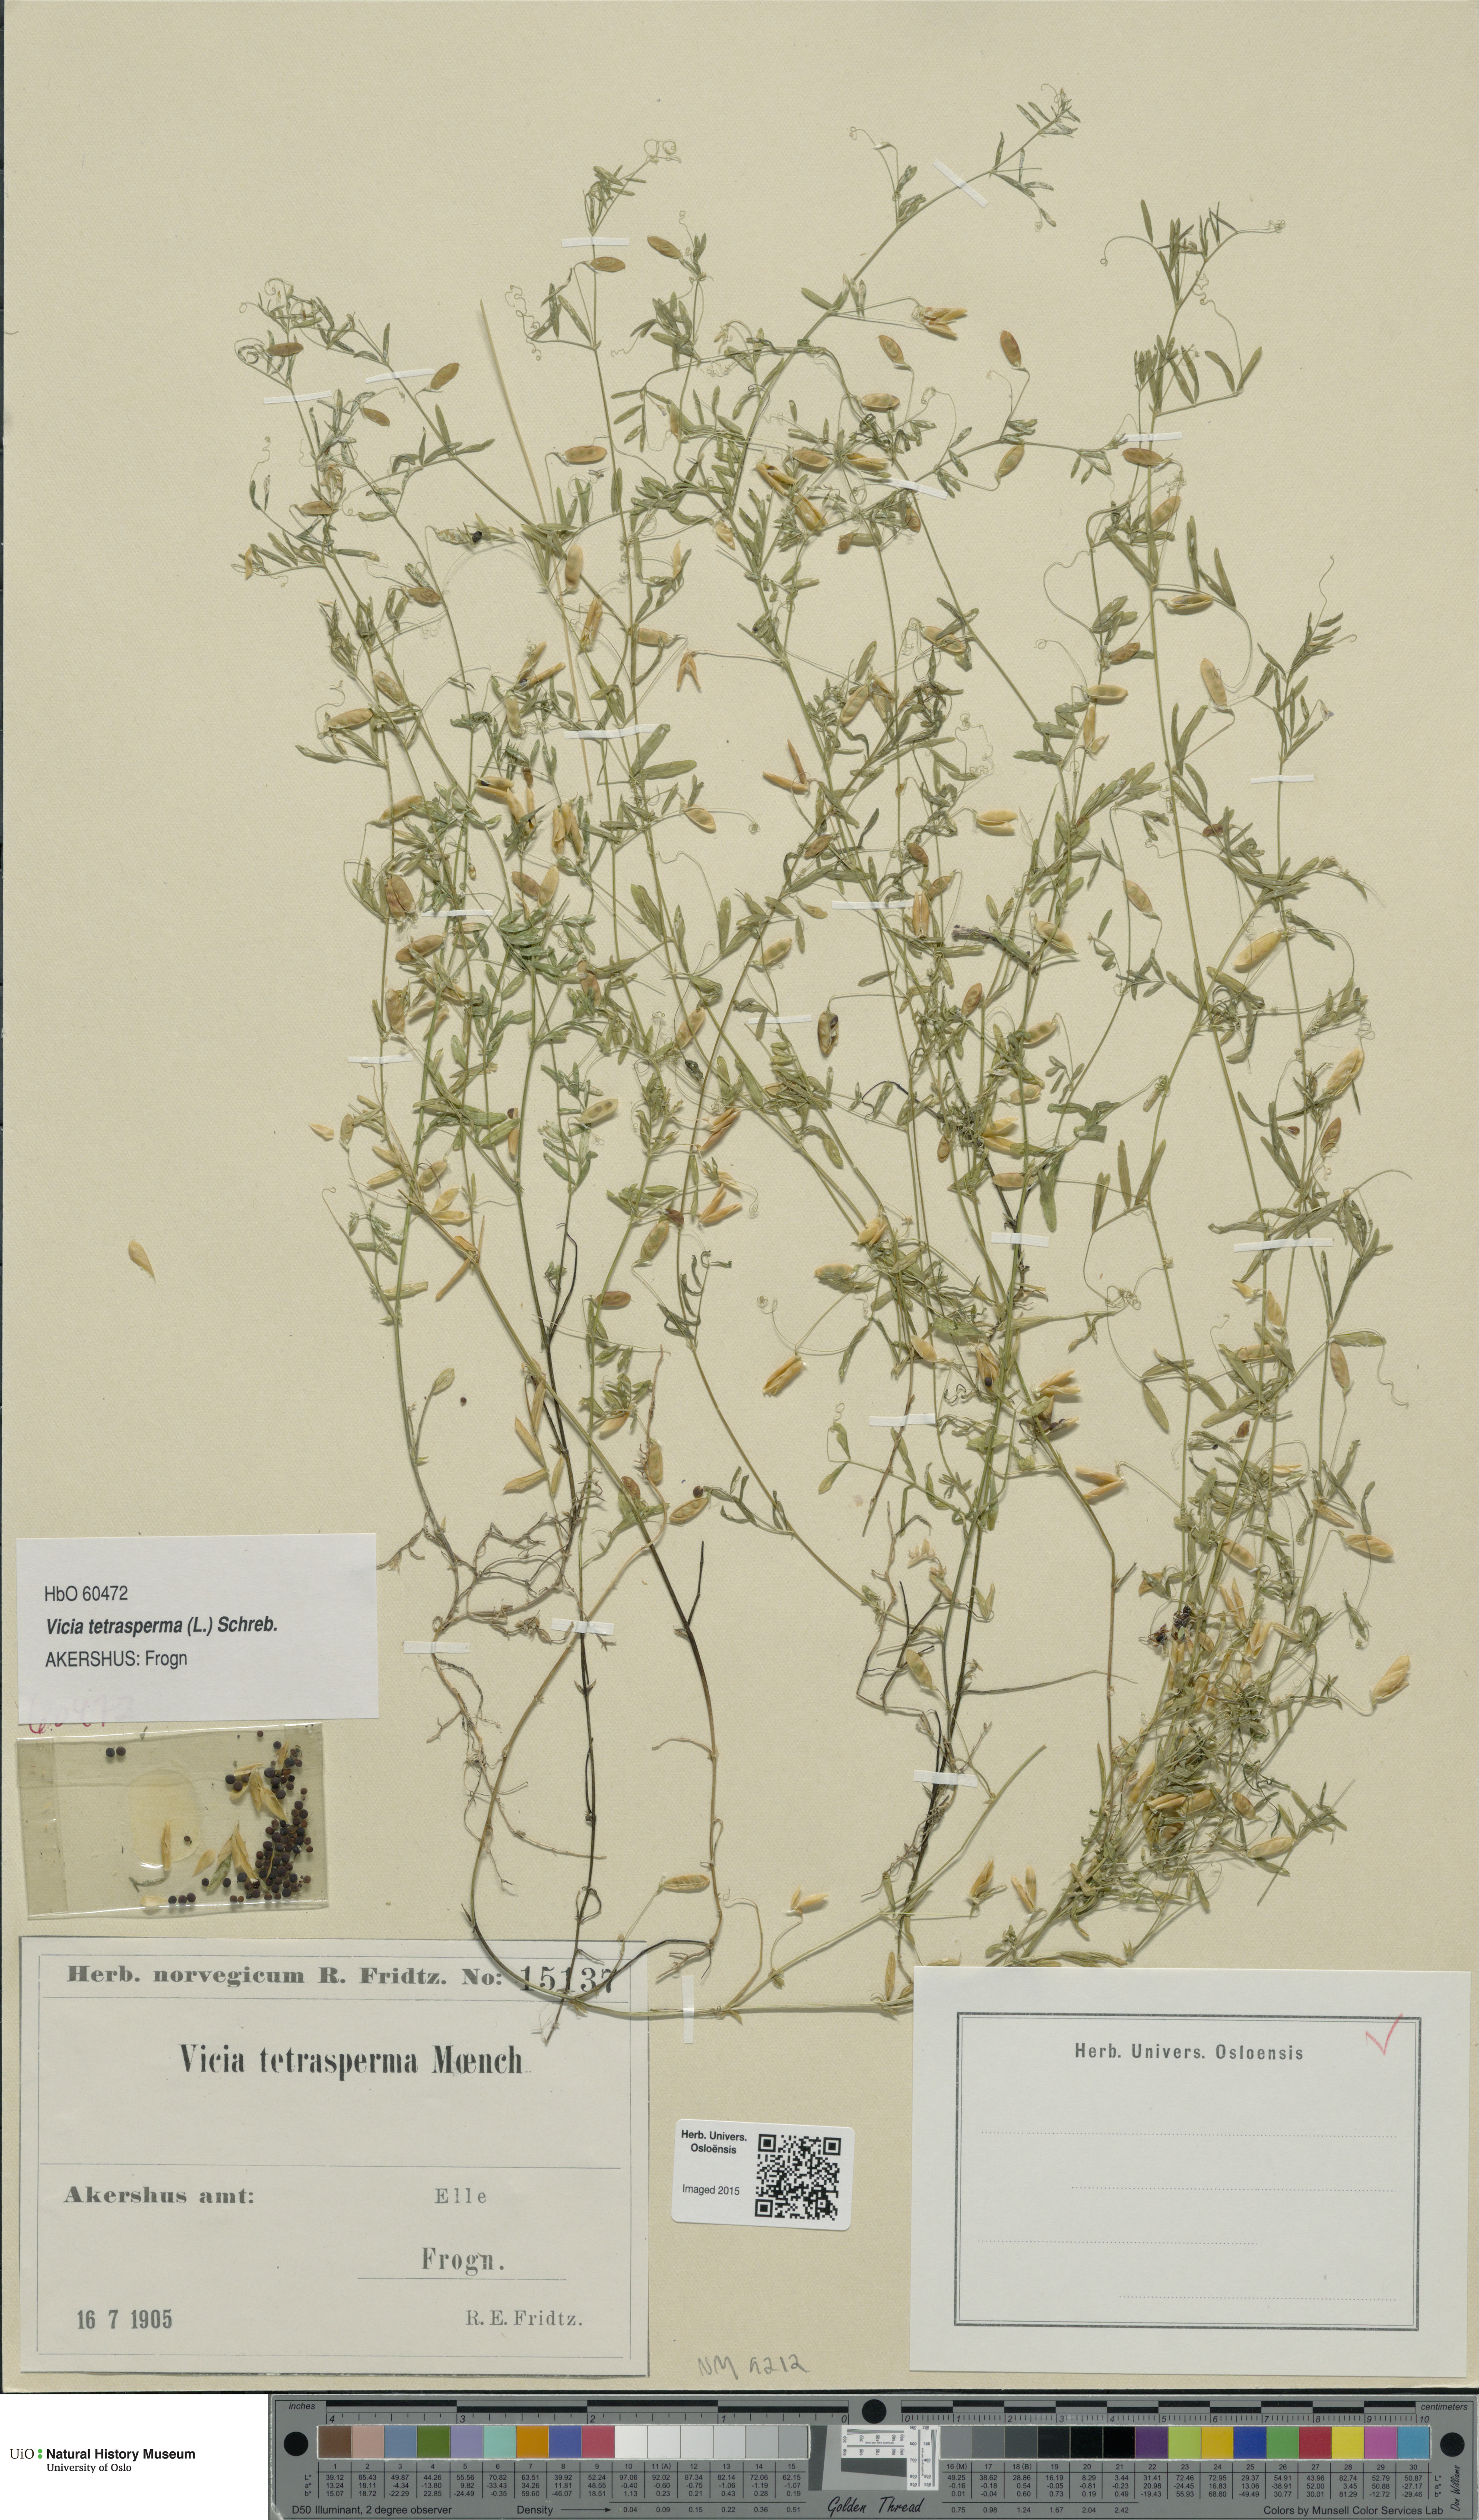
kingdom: Plantae
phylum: Tracheophyta
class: Magnoliopsida
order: Fabales
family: Fabaceae
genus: Vicia
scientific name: Vicia tetrasperma
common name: Smooth tare
